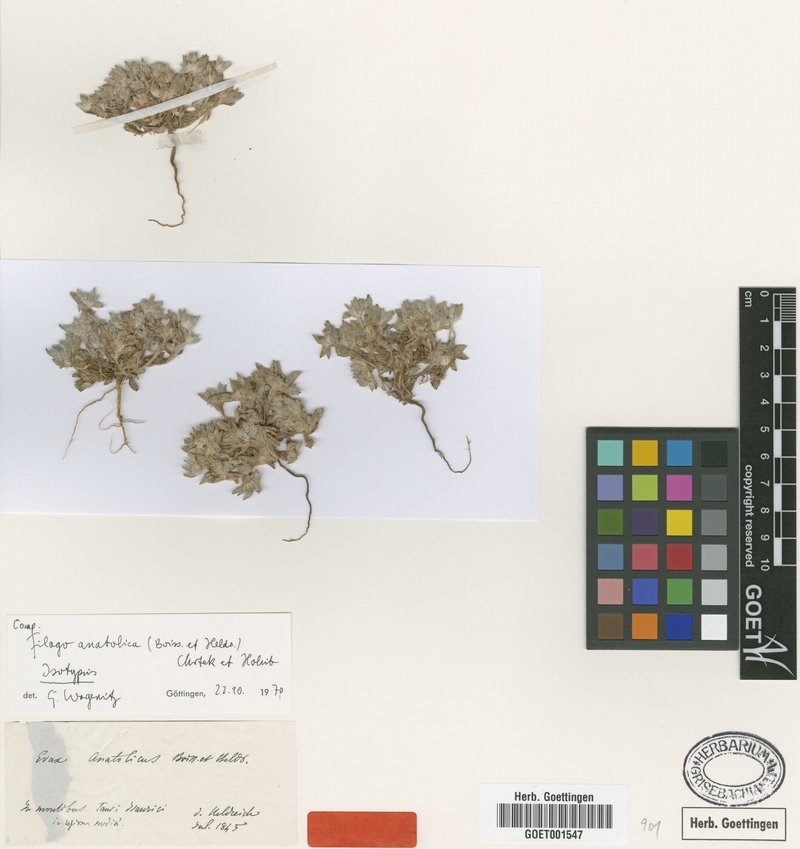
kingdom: Plantae
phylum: Tracheophyta
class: Magnoliopsida
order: Asterales
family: Asteraceae
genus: Filago
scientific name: Filago anatolica
